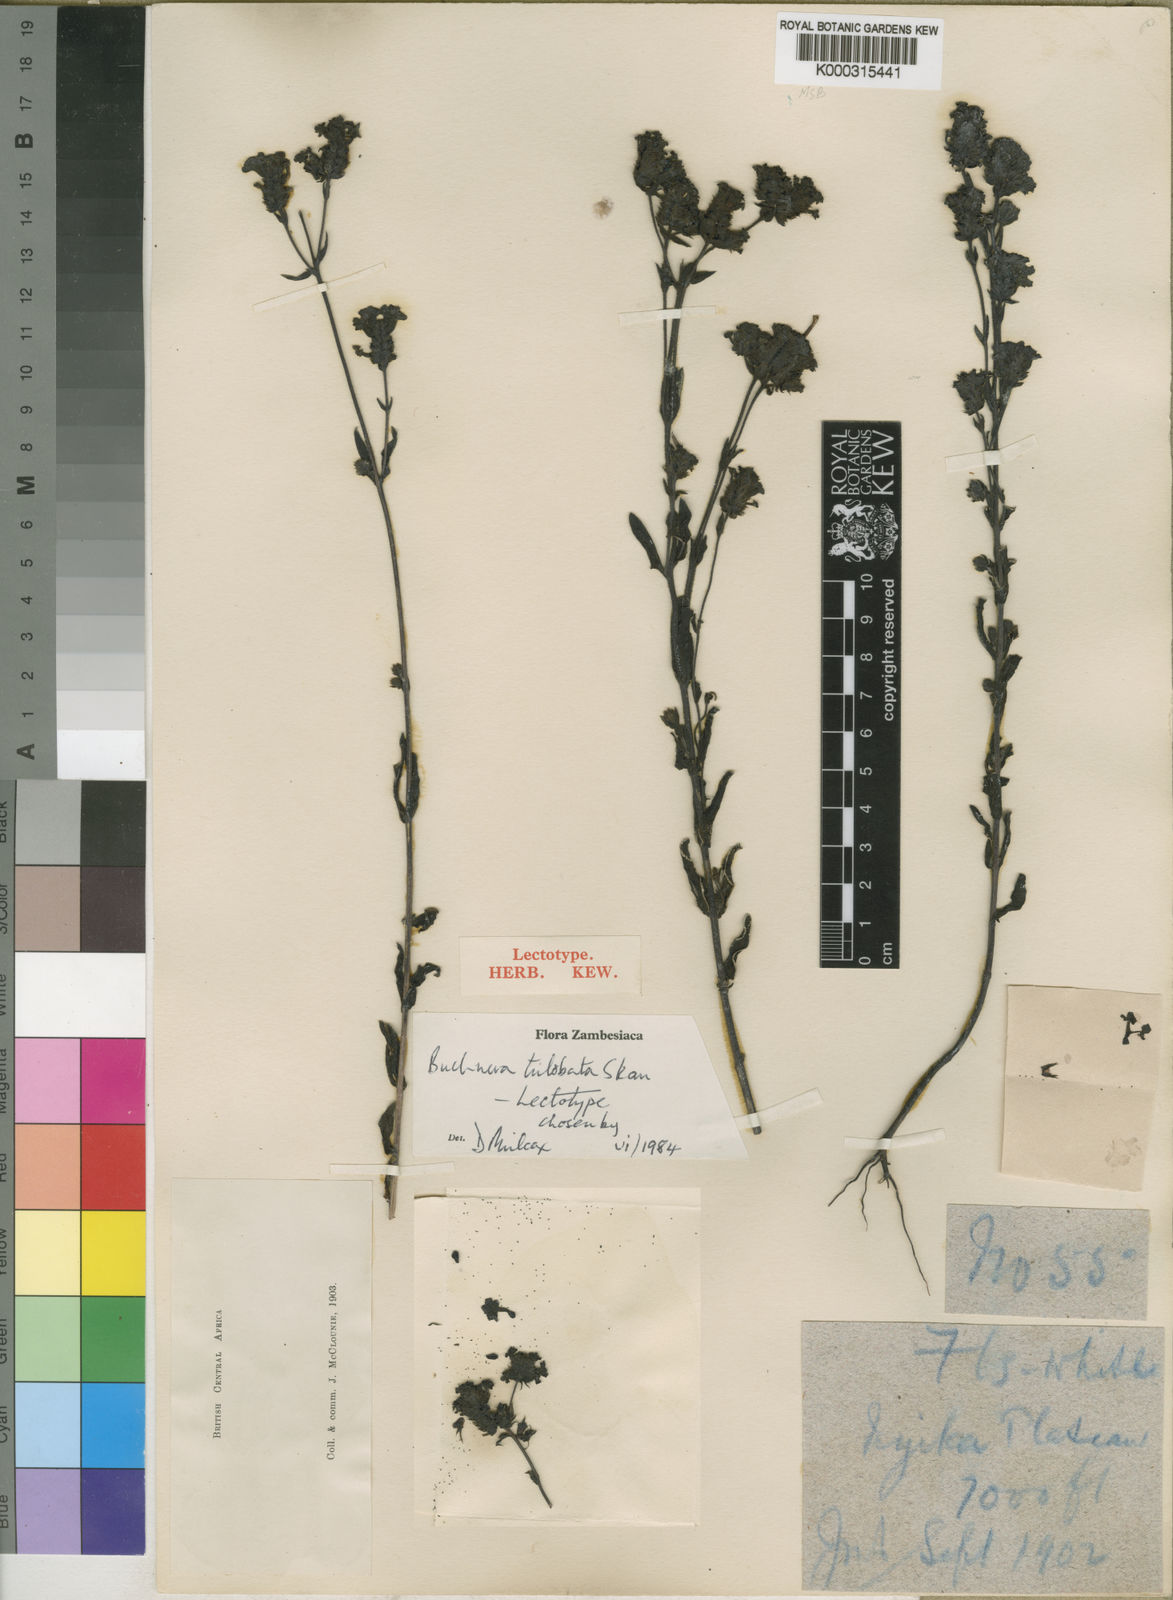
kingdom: Plantae
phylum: Tracheophyta
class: Magnoliopsida
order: Lamiales
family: Orobanchaceae
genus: Buchnera
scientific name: Buchnera trilobata
